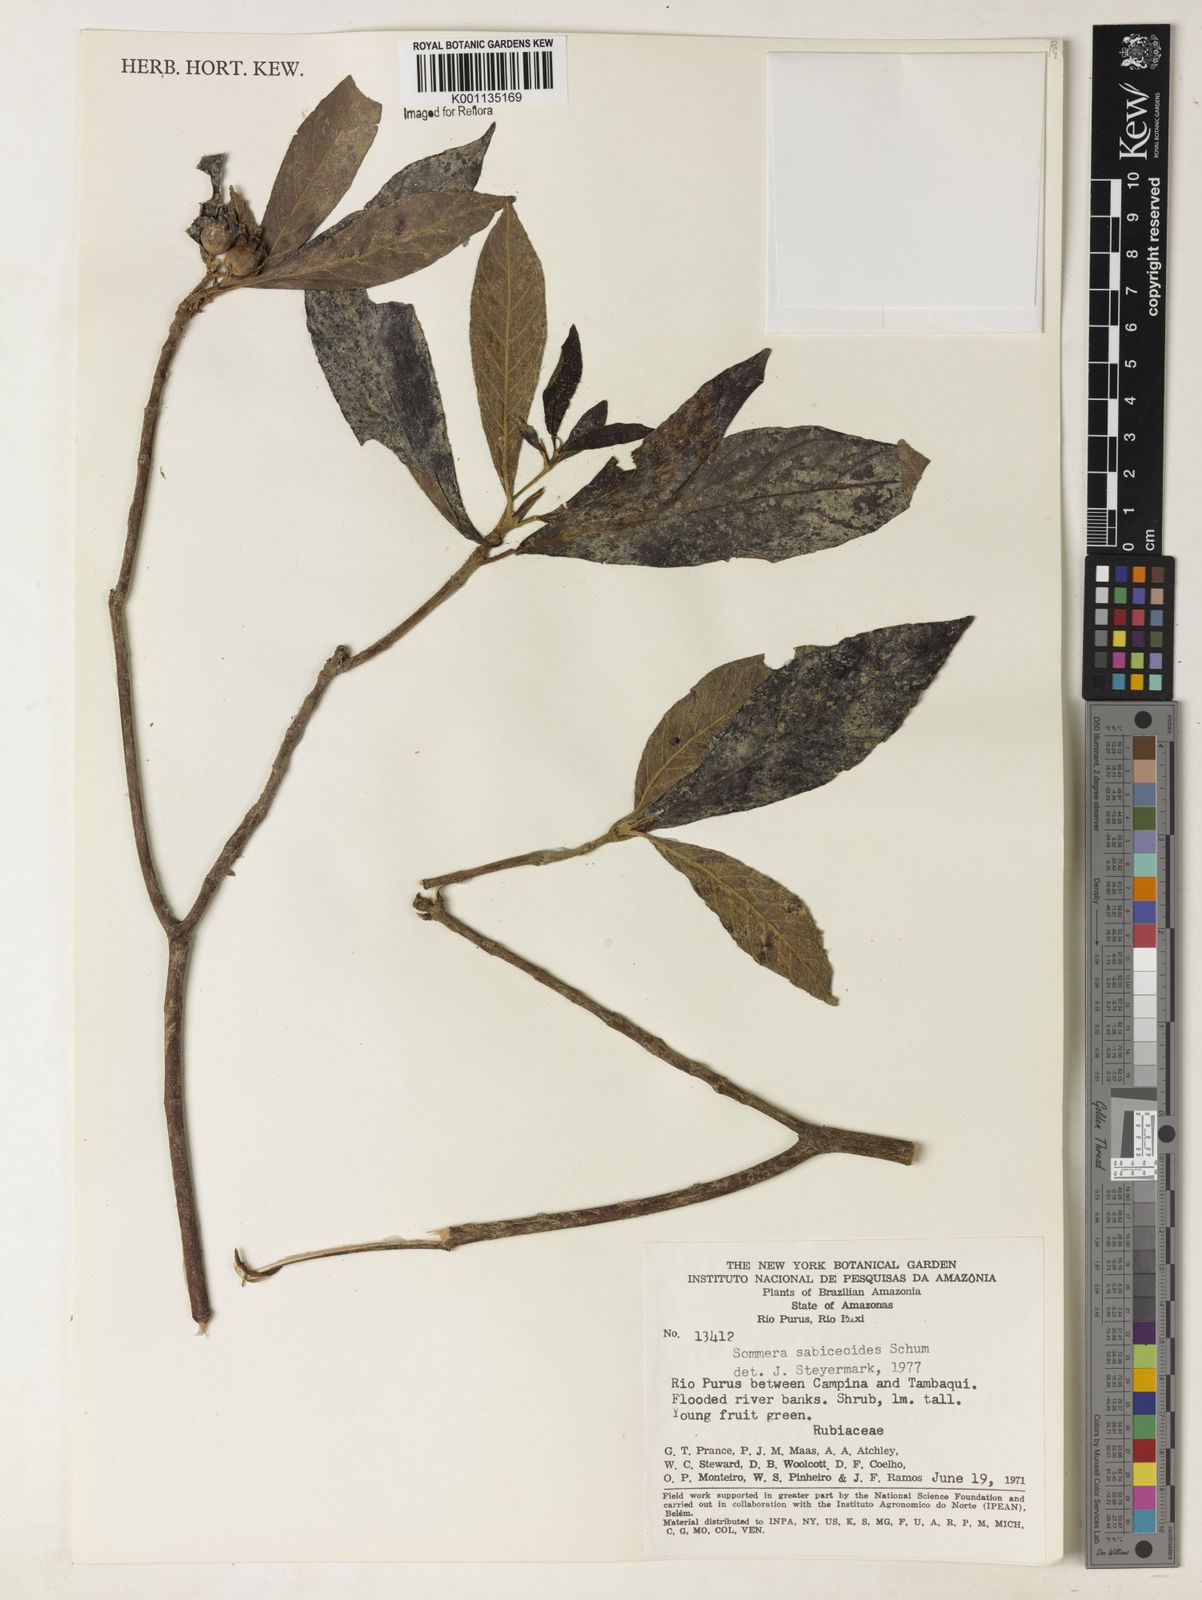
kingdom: Plantae
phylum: Tracheophyta
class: Magnoliopsida
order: Gentianales
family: Rubiaceae
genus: Sommera
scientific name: Sommera sabiceoides
